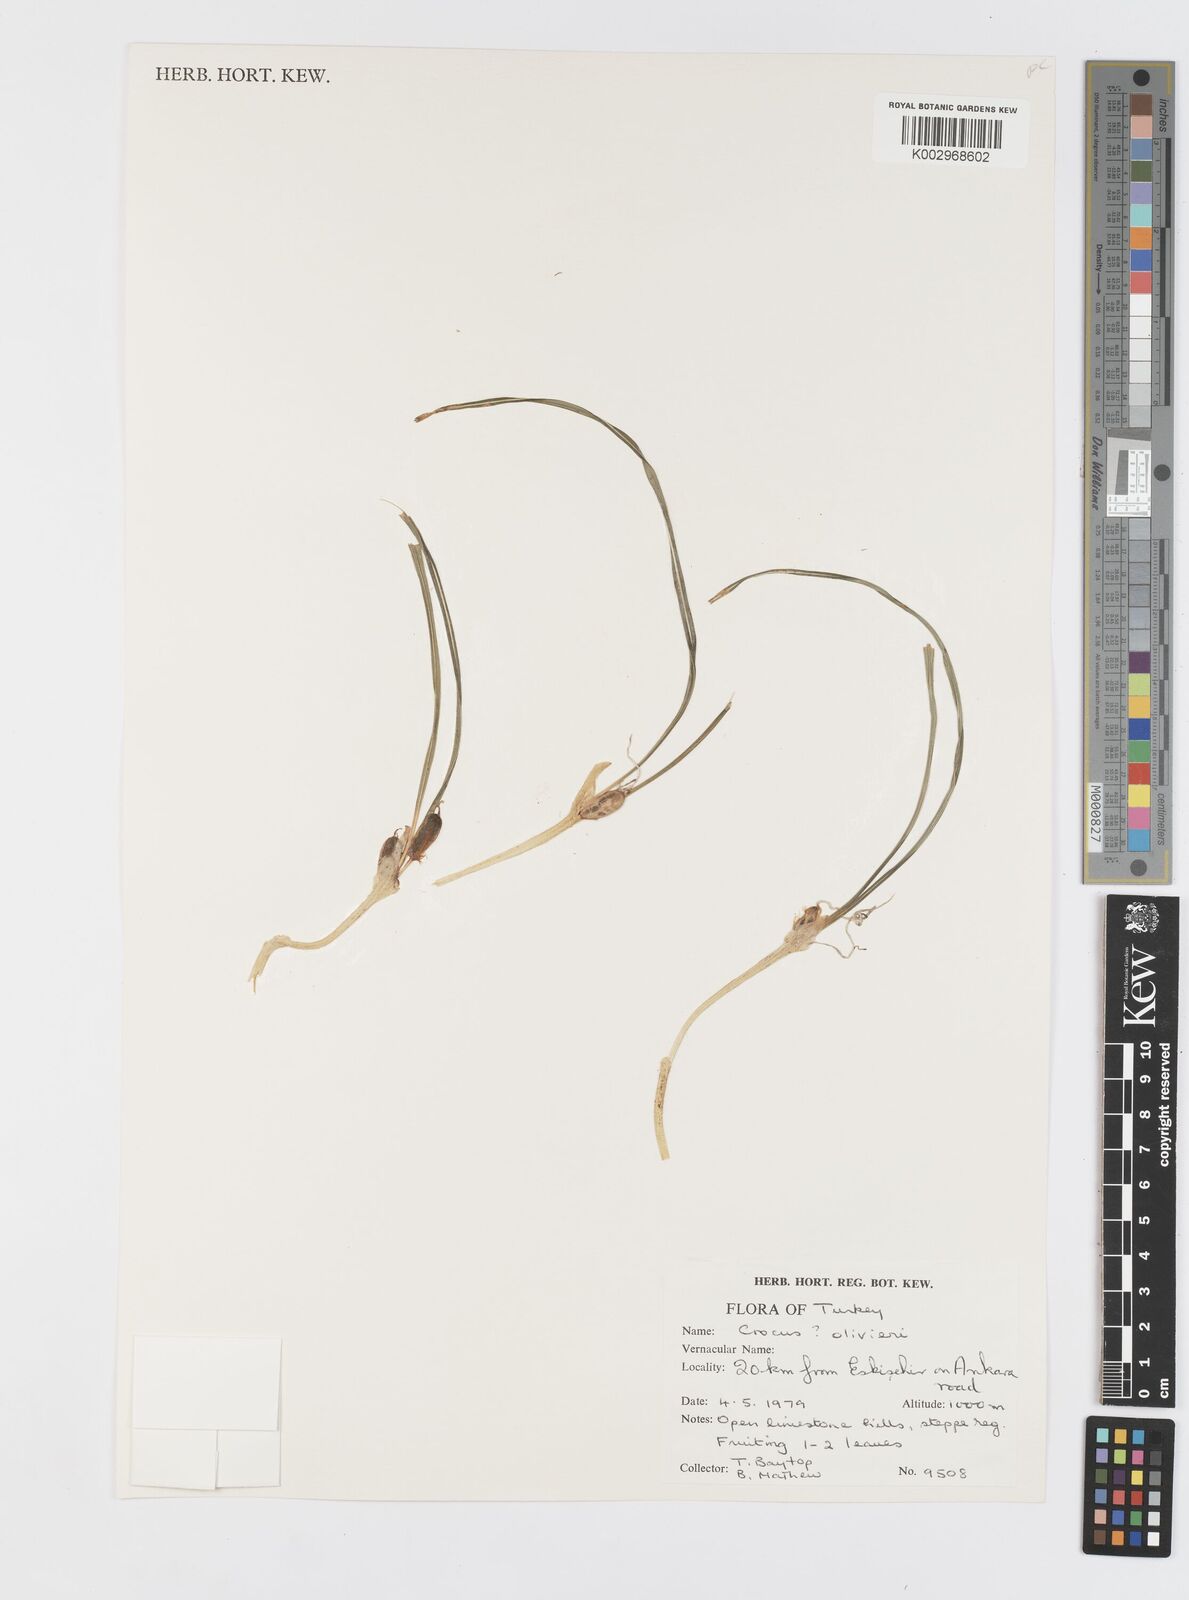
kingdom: Plantae
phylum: Tracheophyta
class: Liliopsida
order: Asparagales
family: Iridaceae
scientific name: Iridaceae
